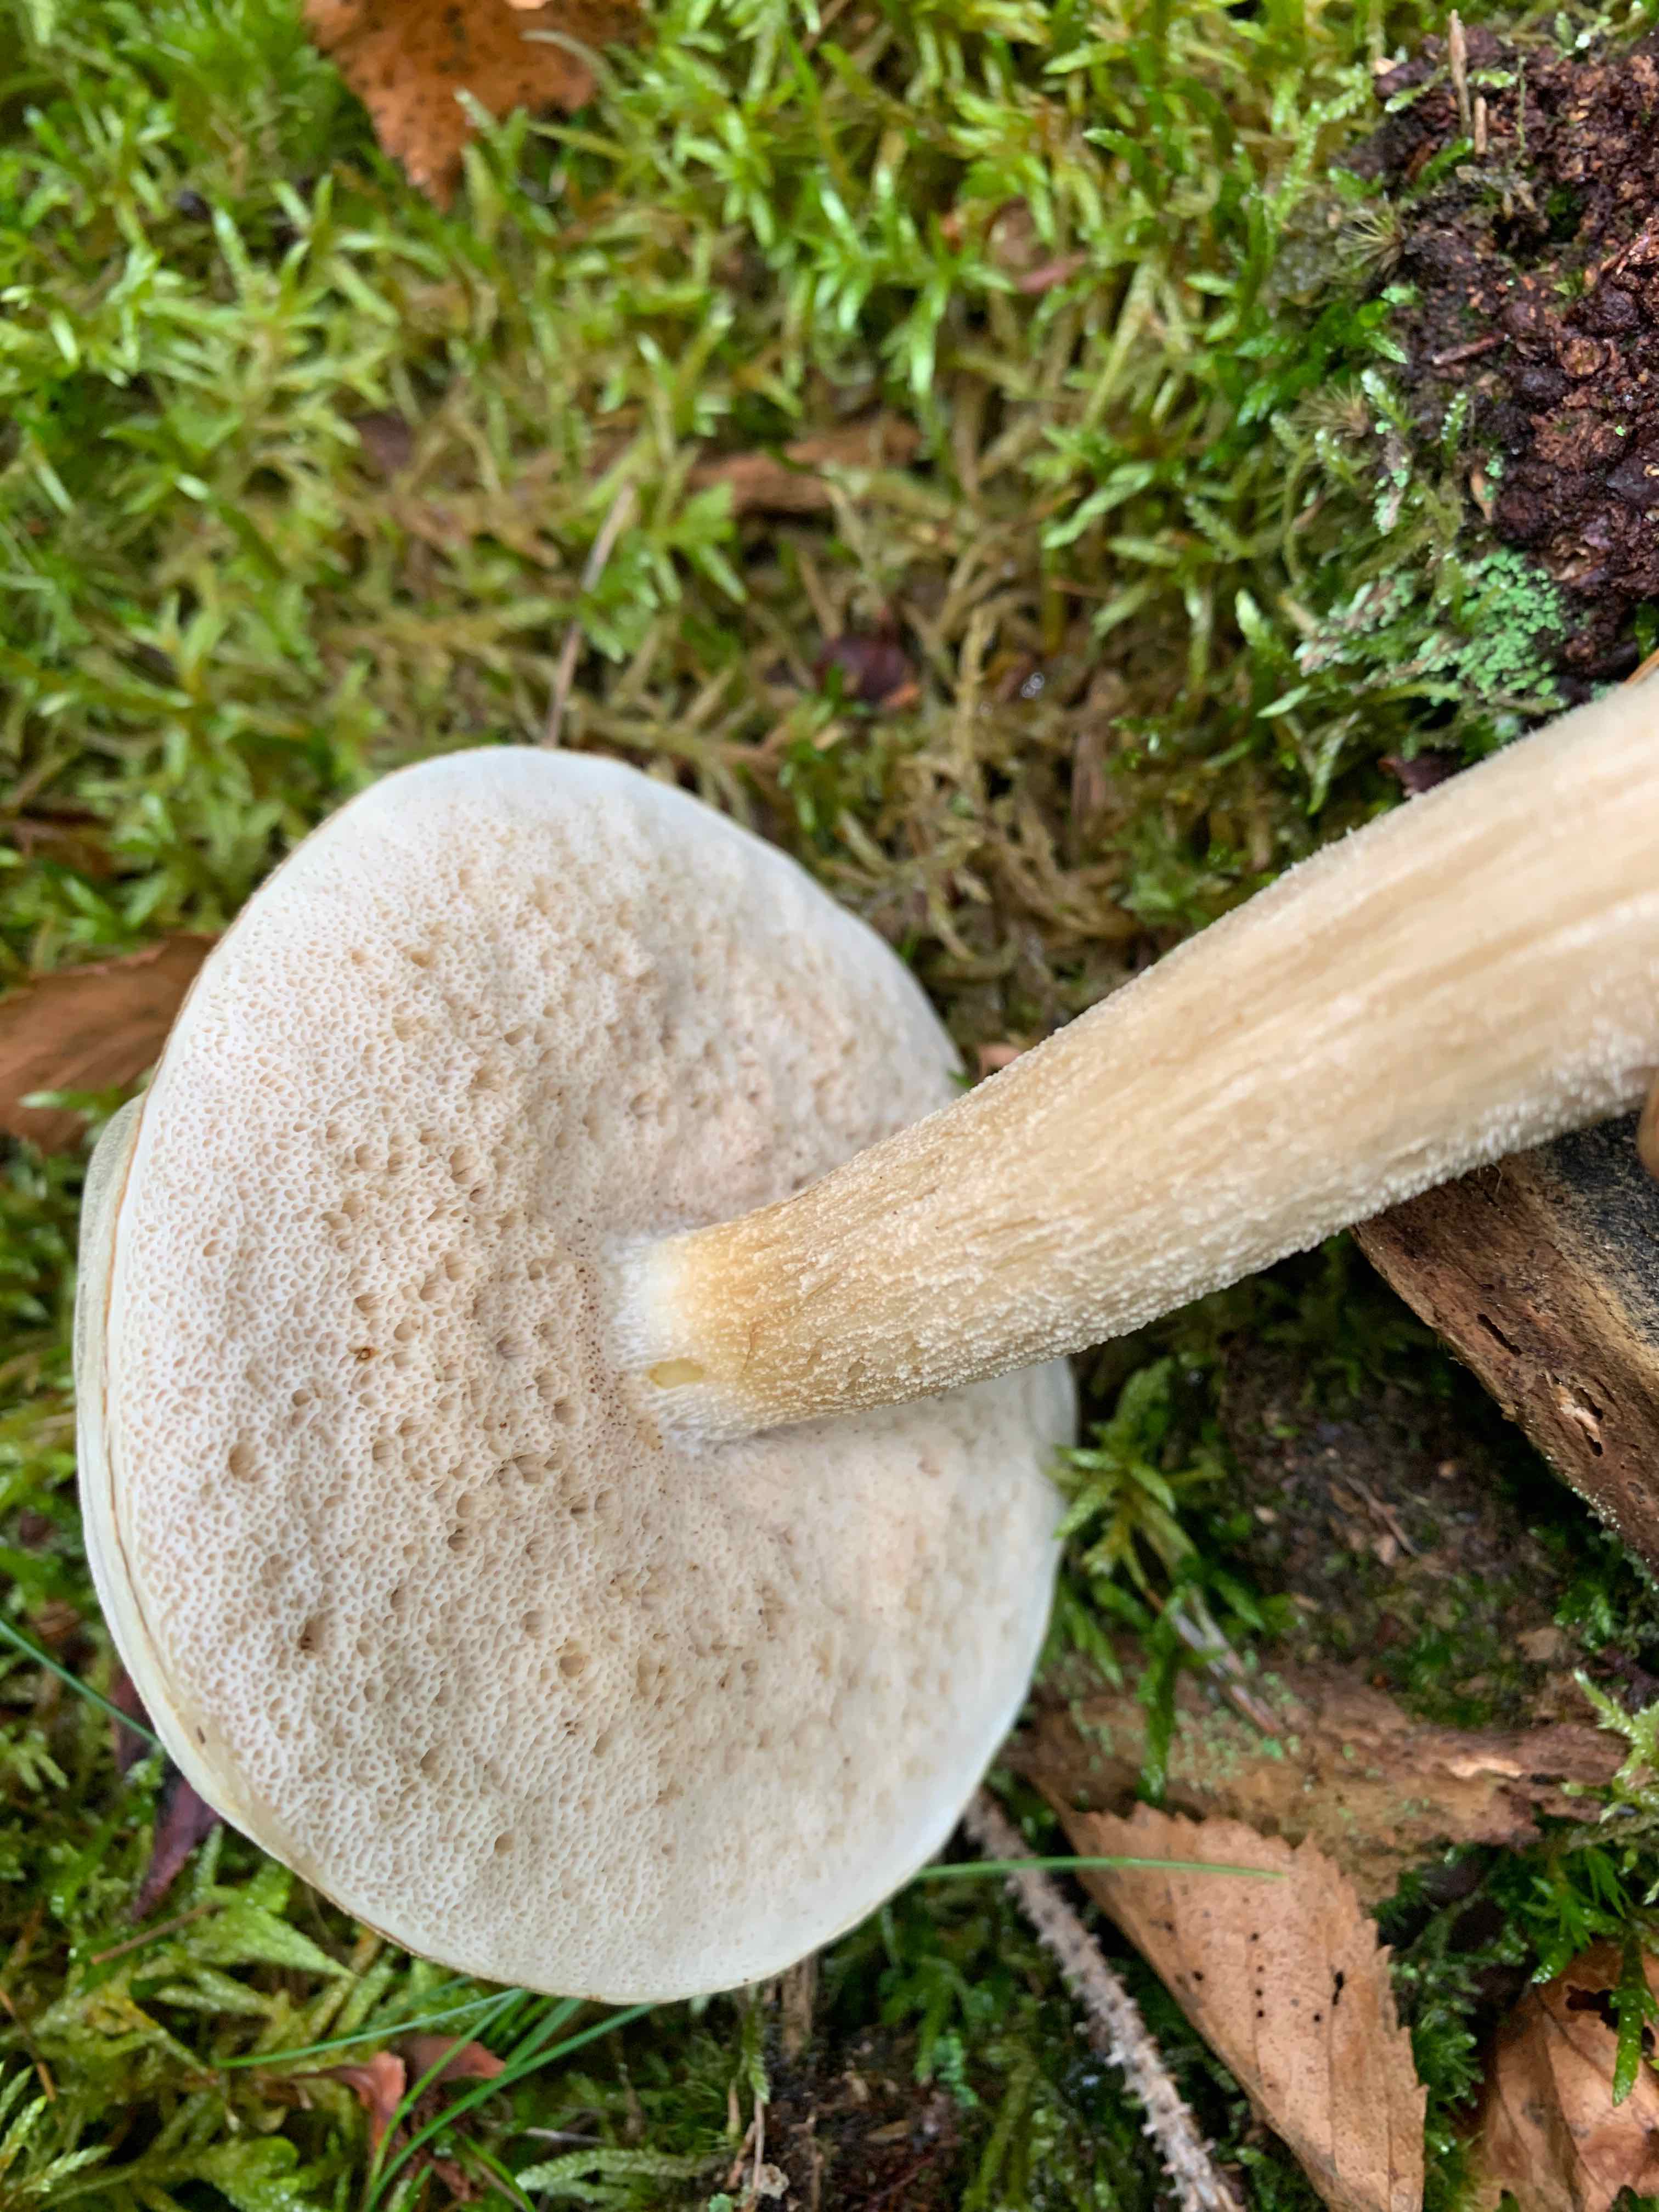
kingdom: Fungi
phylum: Basidiomycota
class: Agaricomycetes
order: Boletales
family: Boletaceae
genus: Leccinum
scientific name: Leccinum cyaneobasileucum
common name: almindelig skælrørhat
